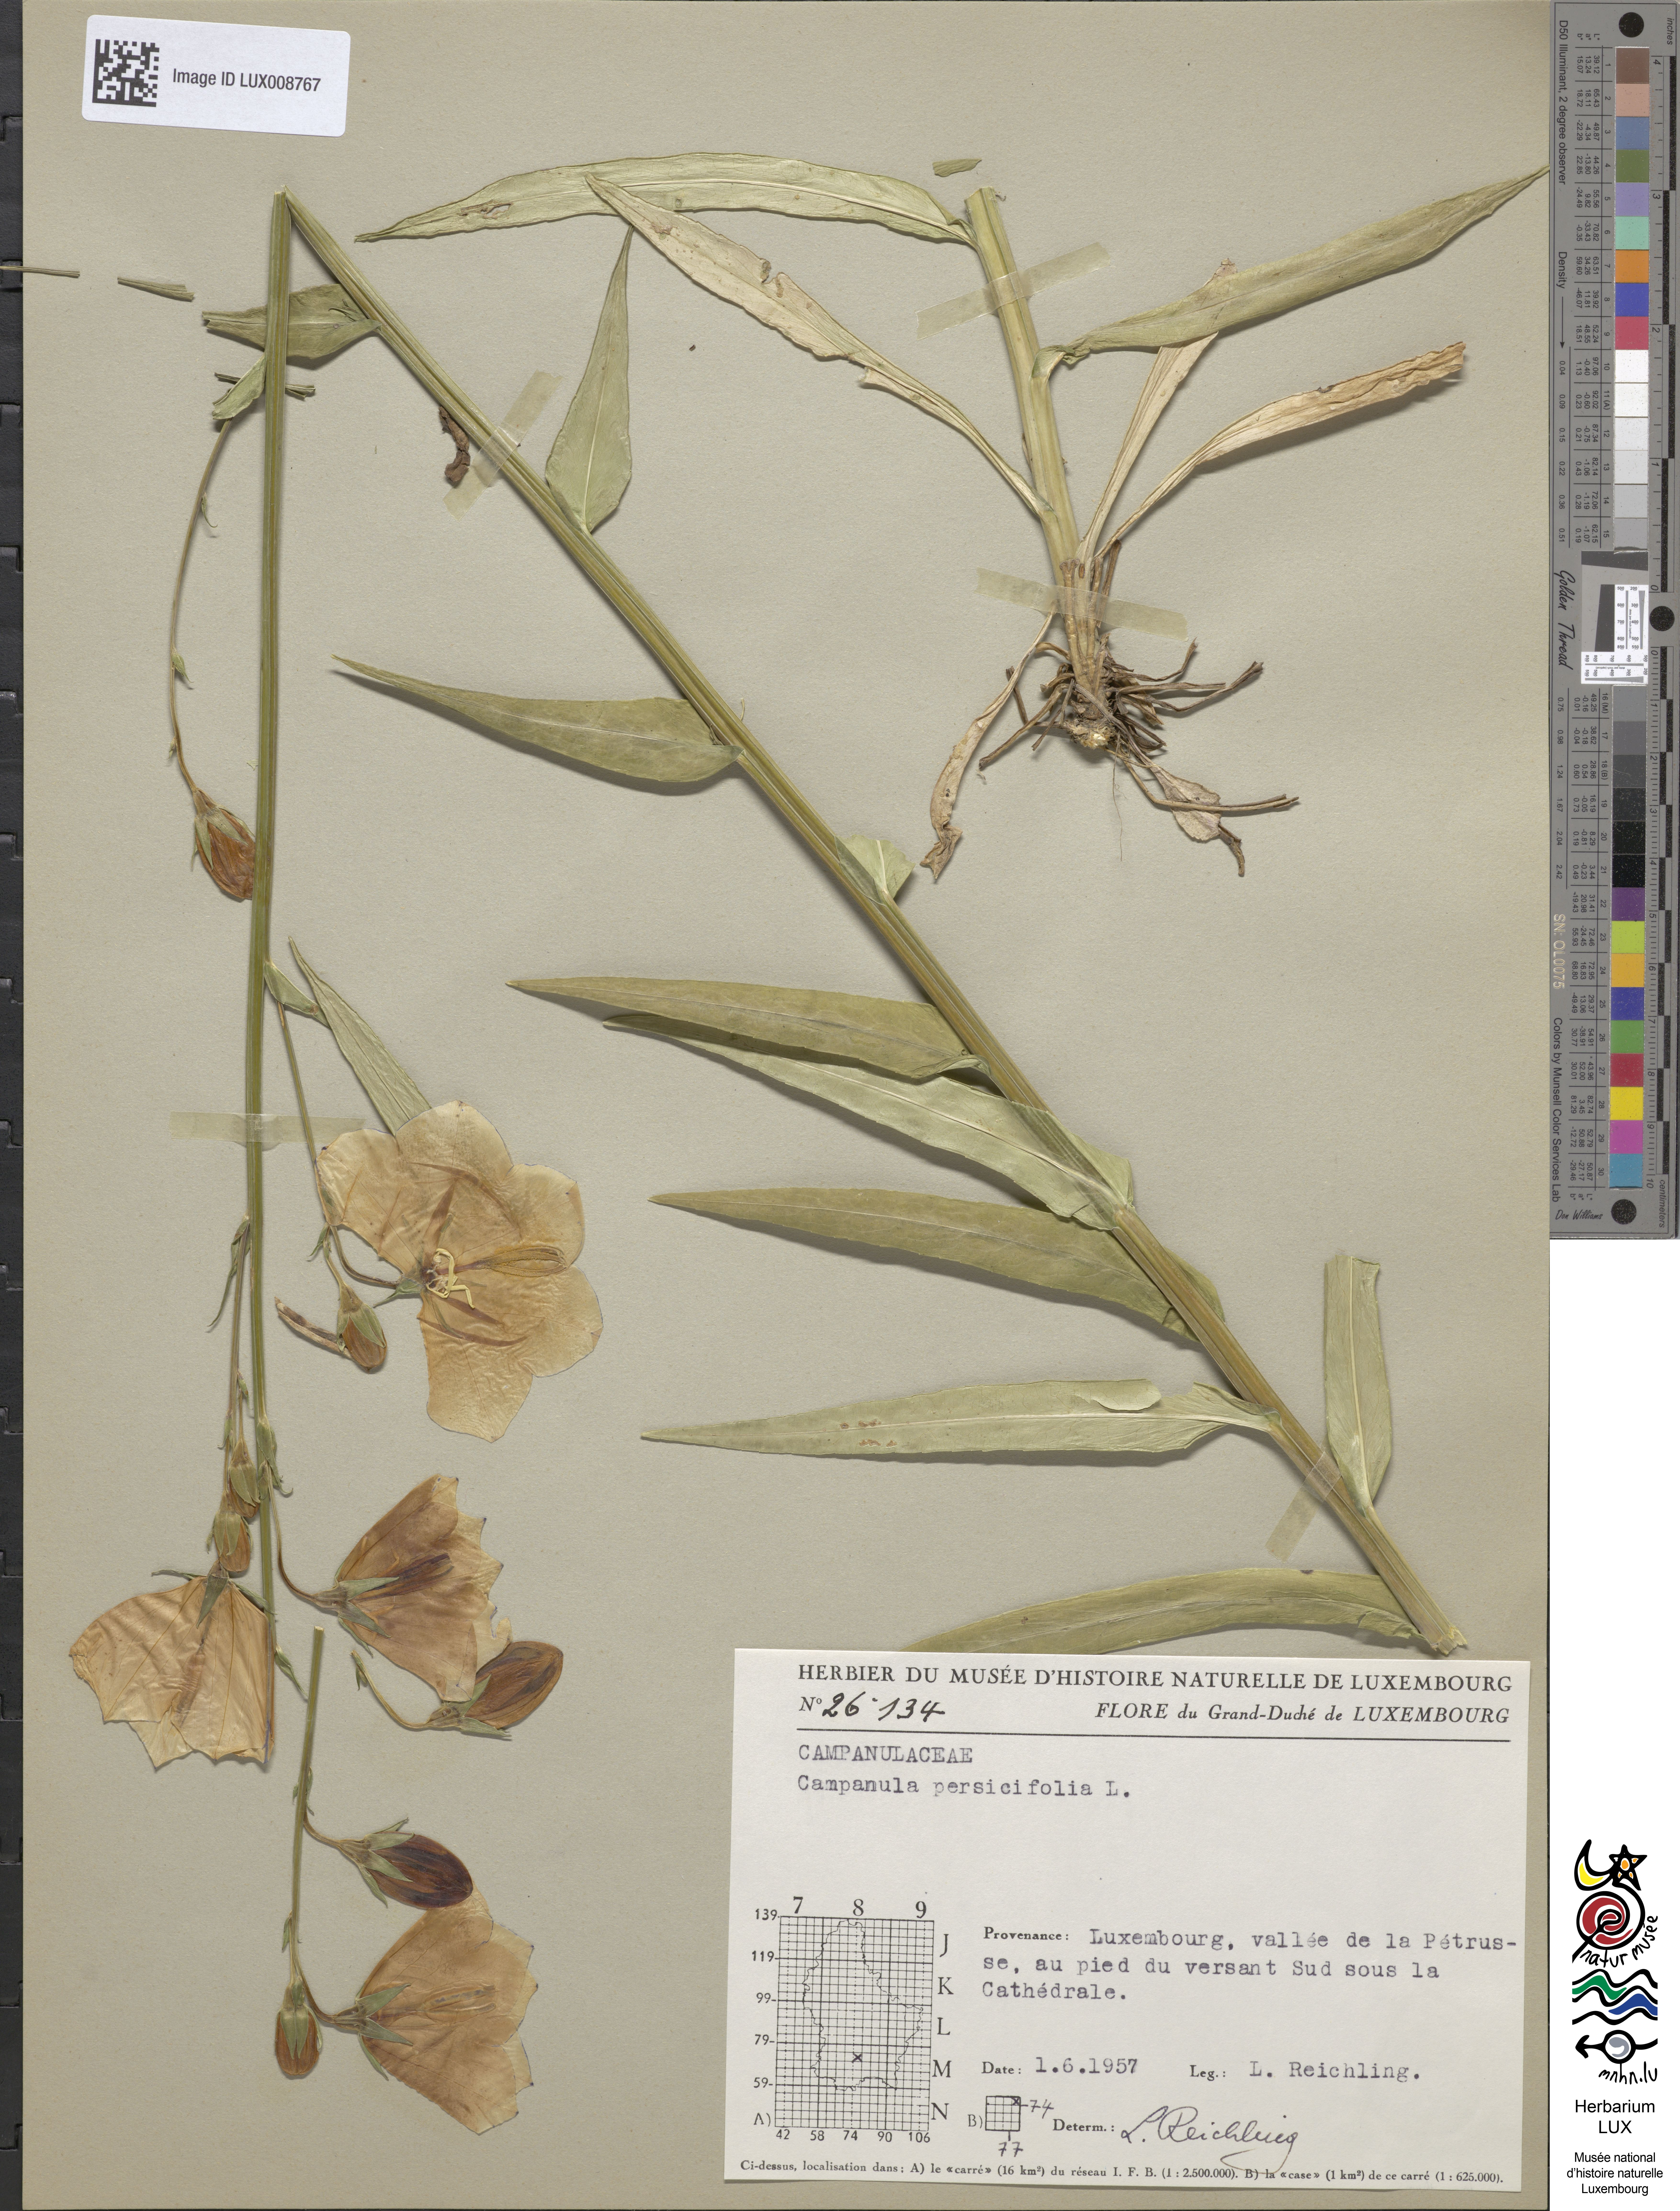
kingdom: Plantae
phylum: Tracheophyta
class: Magnoliopsida
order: Asterales
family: Campanulaceae
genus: Campanula
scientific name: Campanula persicifolia
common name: Peach-leaved bellflower
